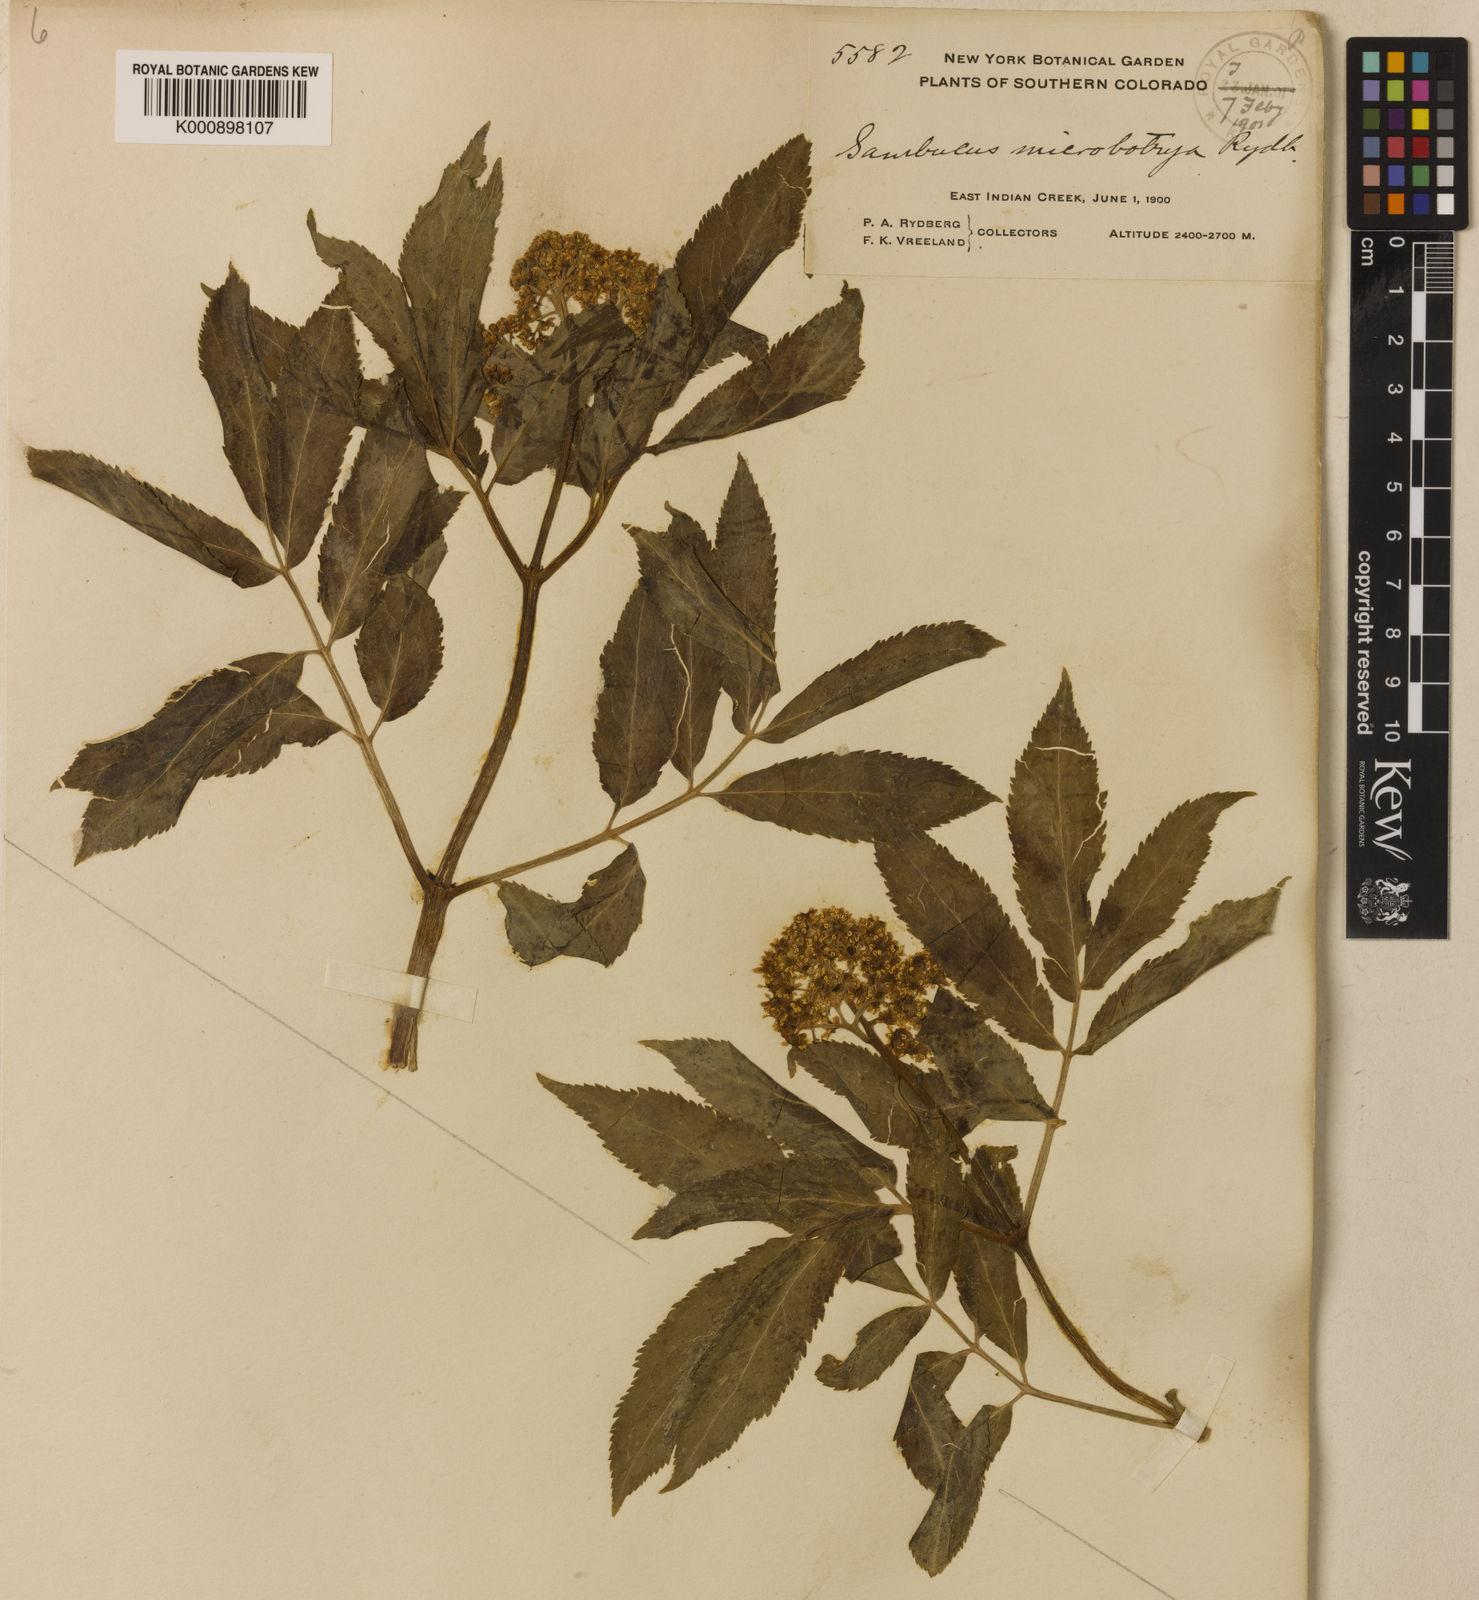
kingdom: Plantae
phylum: Tracheophyta
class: Magnoliopsida
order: Dipsacales
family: Viburnaceae
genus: Sambucus
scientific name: Sambucus racemosa
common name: Red-berried elder
